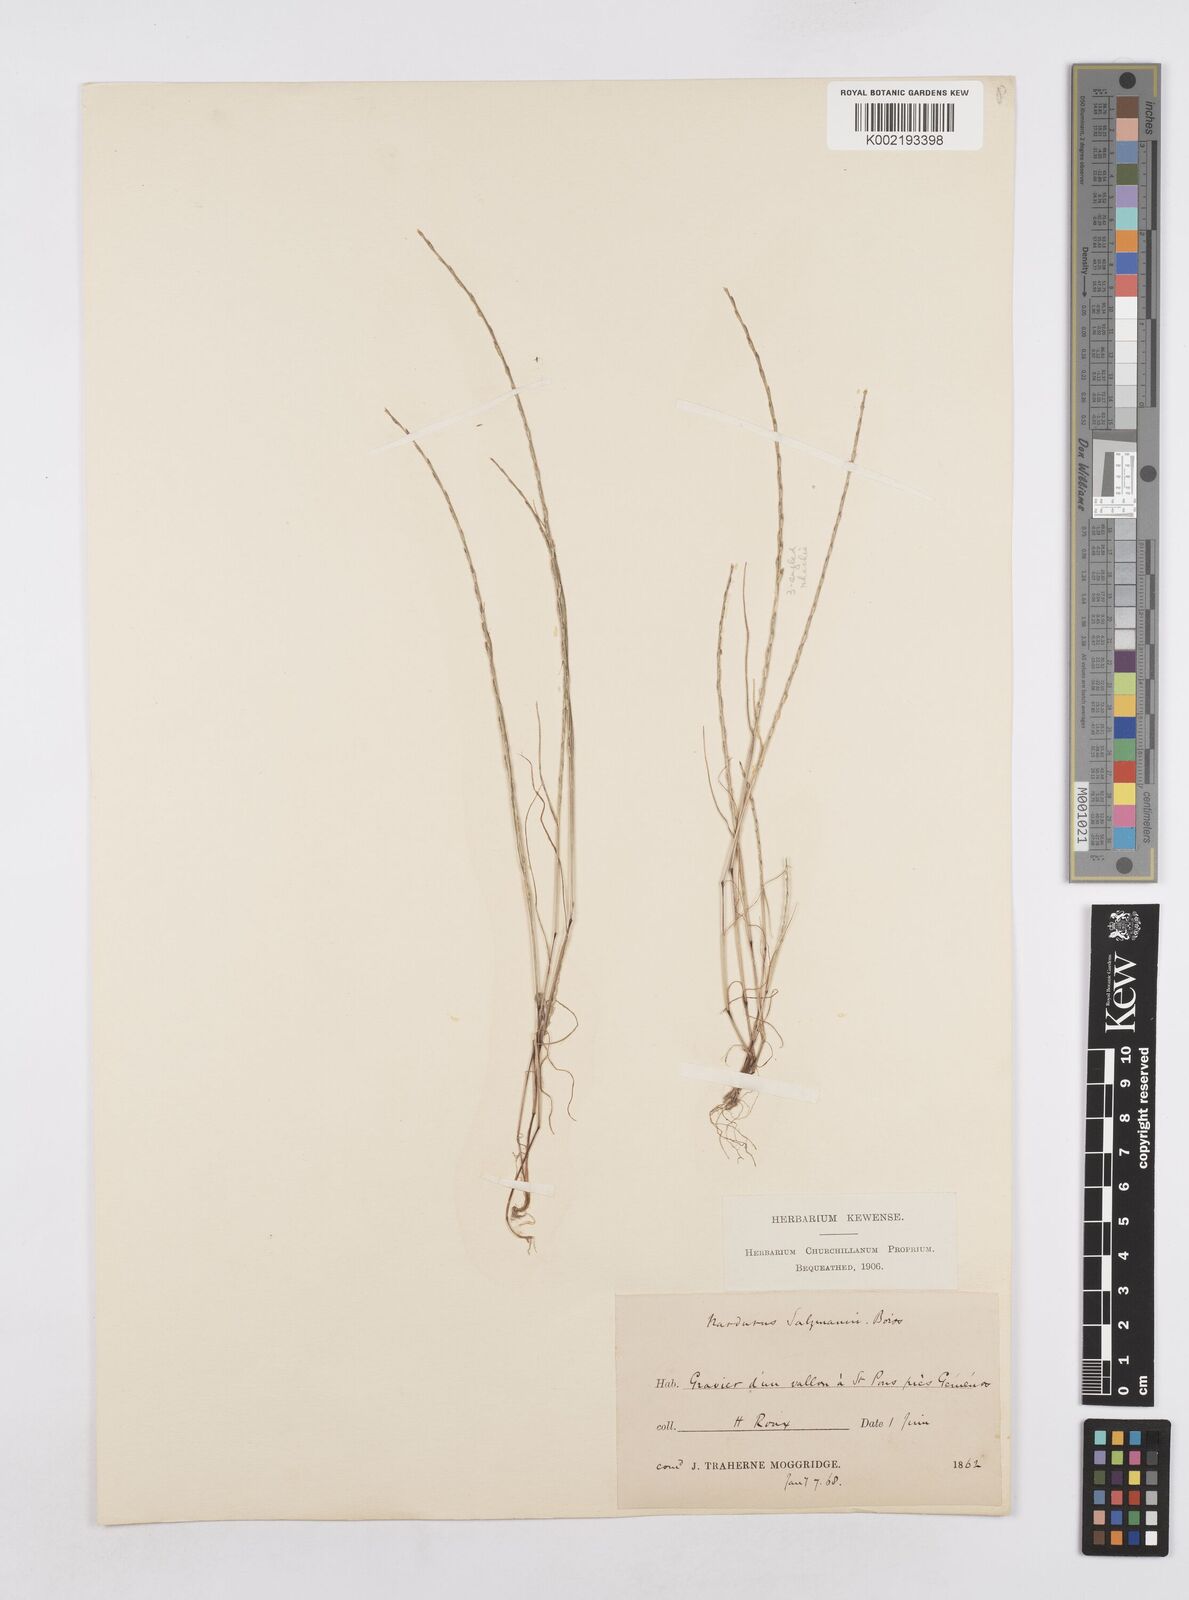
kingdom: Plantae
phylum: Tracheophyta
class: Liliopsida
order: Poales
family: Poaceae
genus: Festuca
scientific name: Festuca salzmannii
